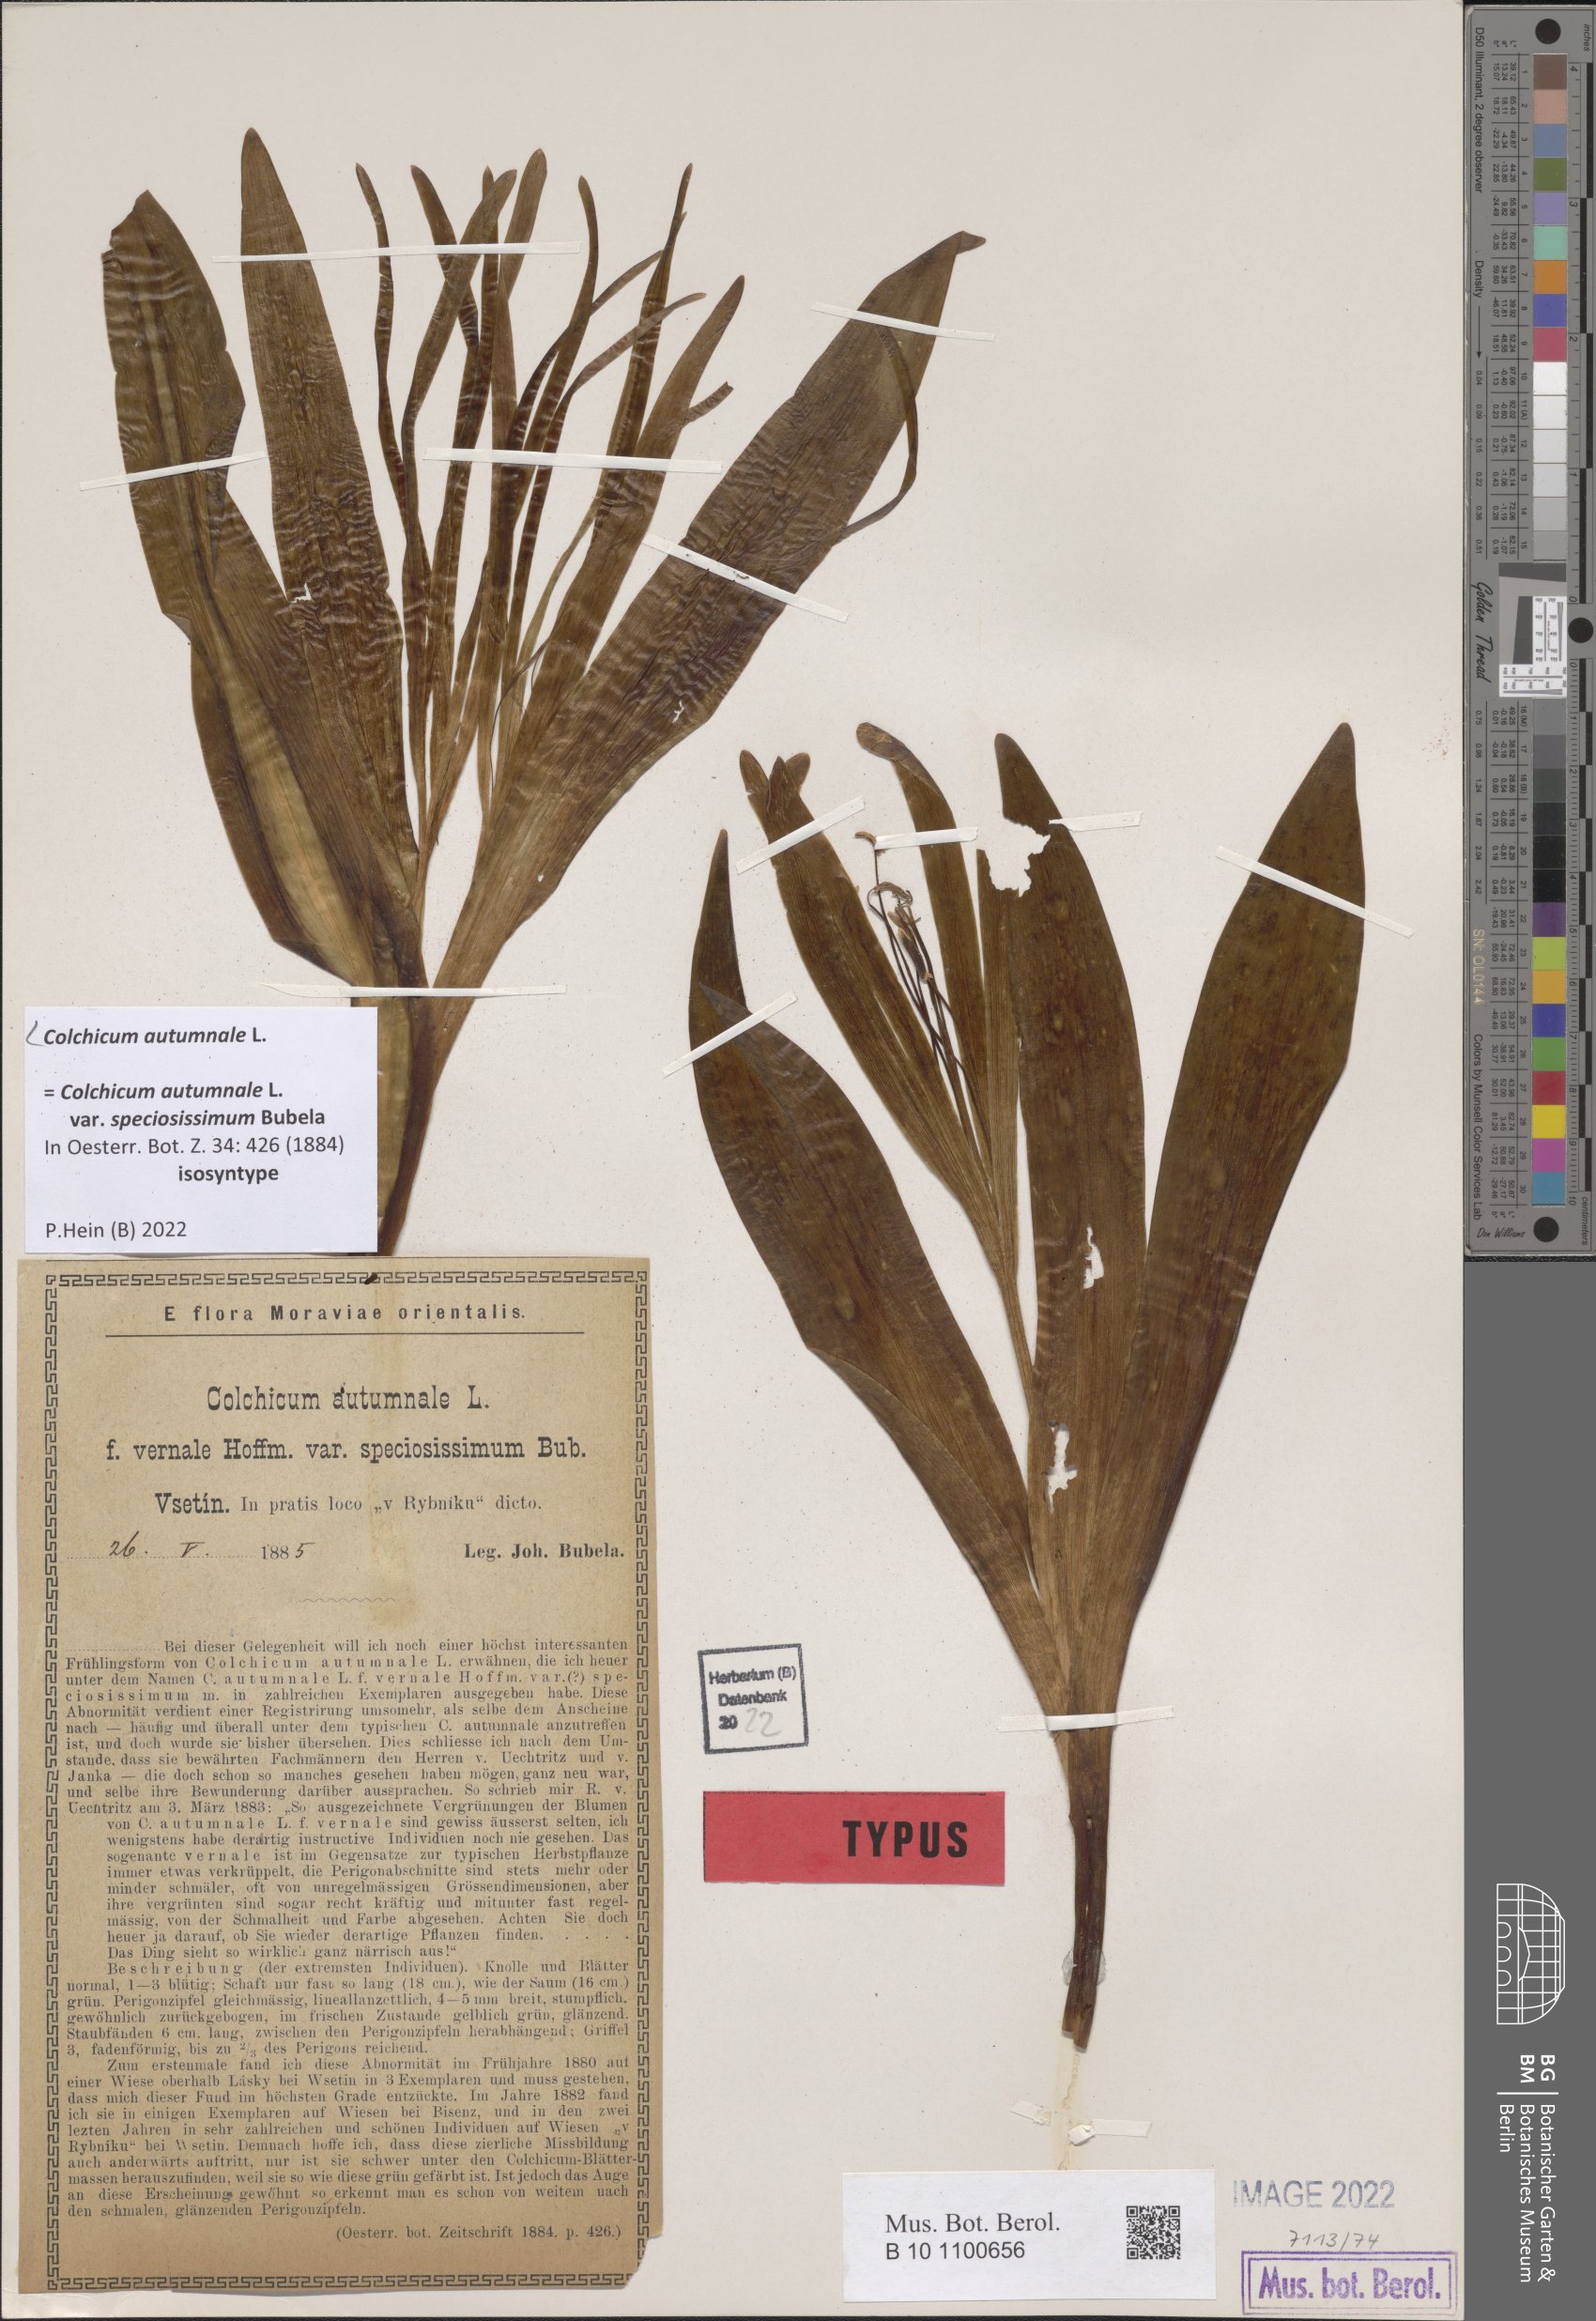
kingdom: Plantae
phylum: Tracheophyta
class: Liliopsida
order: Liliales
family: Colchicaceae
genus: Colchicum
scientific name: Colchicum autumnale
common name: Autumn crocus
